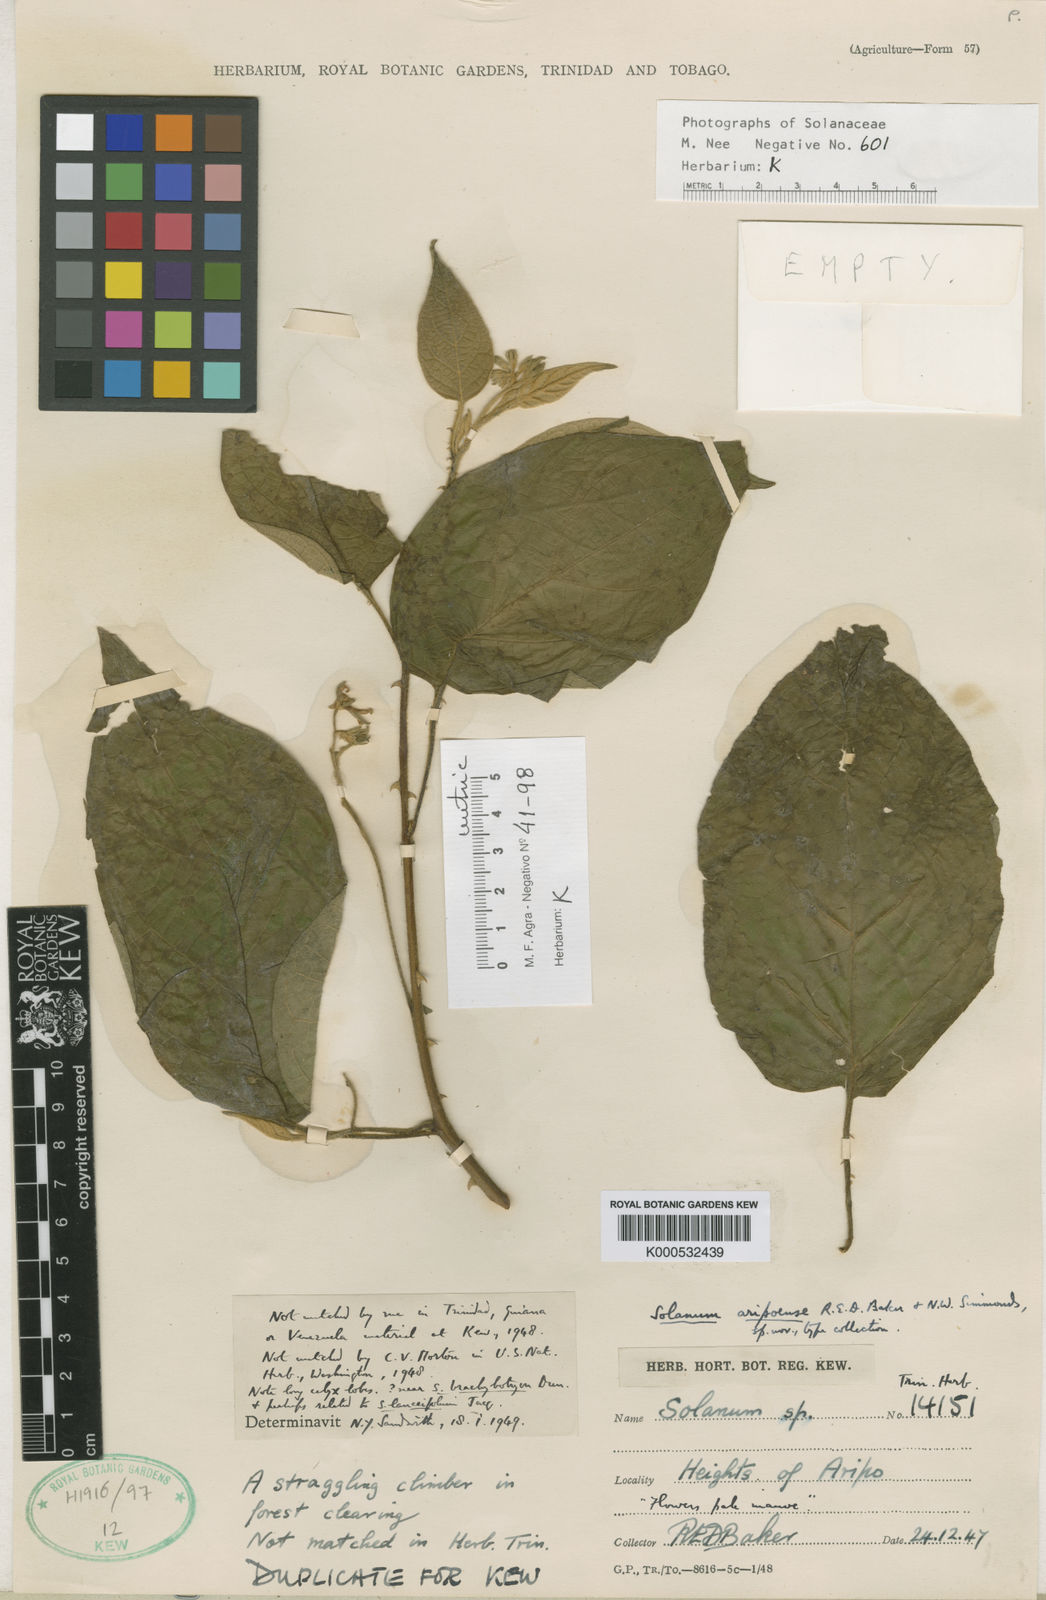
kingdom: Plantae
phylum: Tracheophyta
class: Magnoliopsida
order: Solanales
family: Solanaceae
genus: Solanum
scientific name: Solanum velutinum
